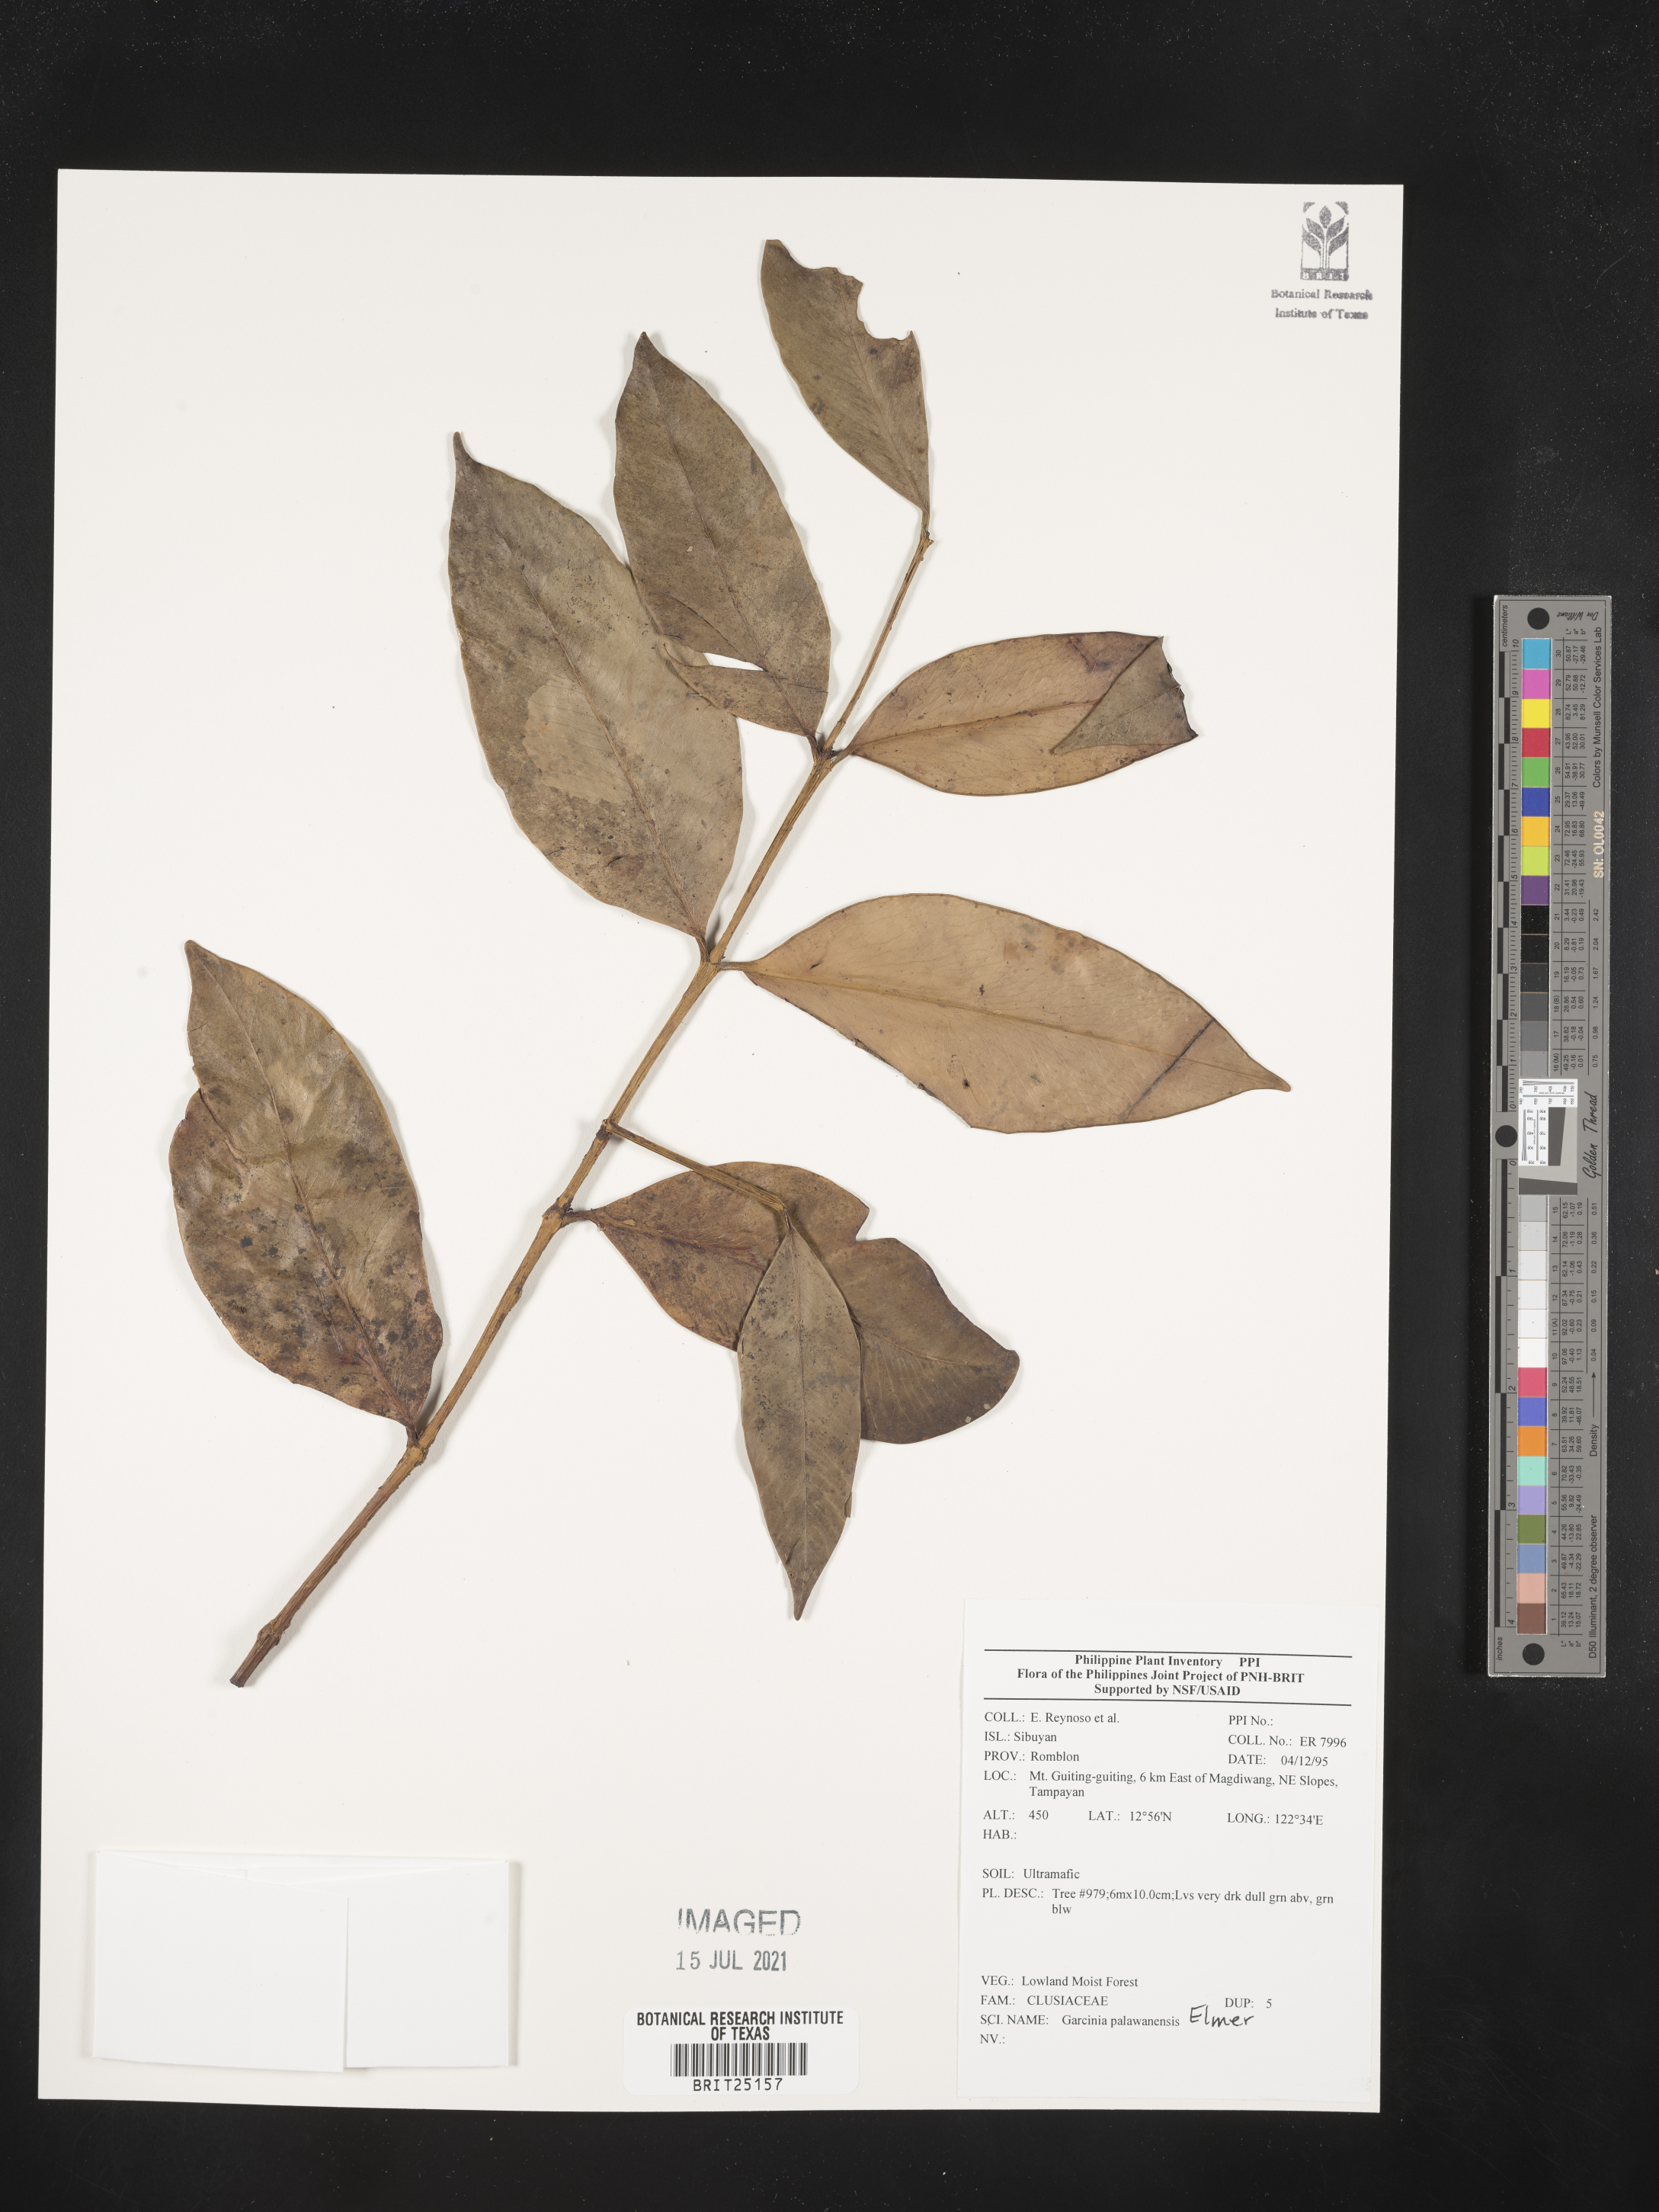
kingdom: Plantae
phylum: Tracheophyta
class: Magnoliopsida
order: Malpighiales
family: Clusiaceae
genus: Garcinia
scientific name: Garcinia dives
